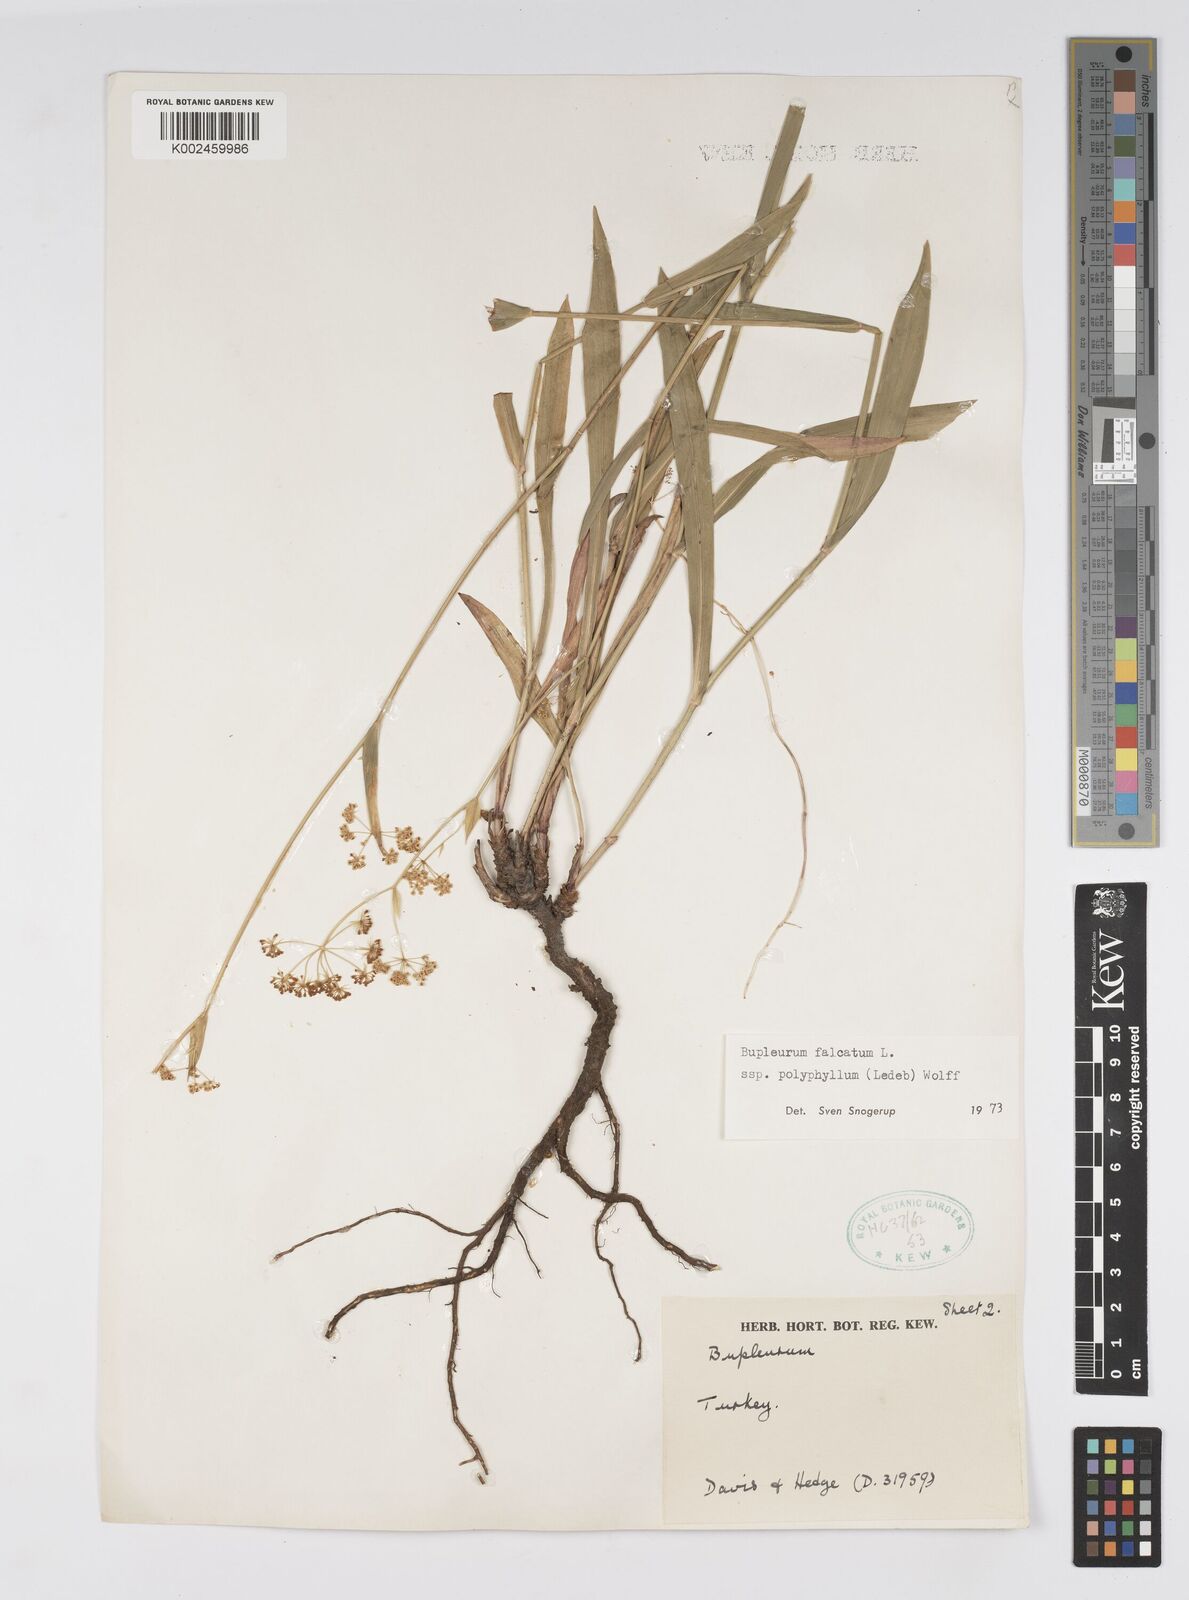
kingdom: Plantae
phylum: Tracheophyta
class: Magnoliopsida
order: Apiales
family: Apiaceae
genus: Bupleurum
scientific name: Bupleurum falcatum
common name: Sickle-leaved hare's-ear
